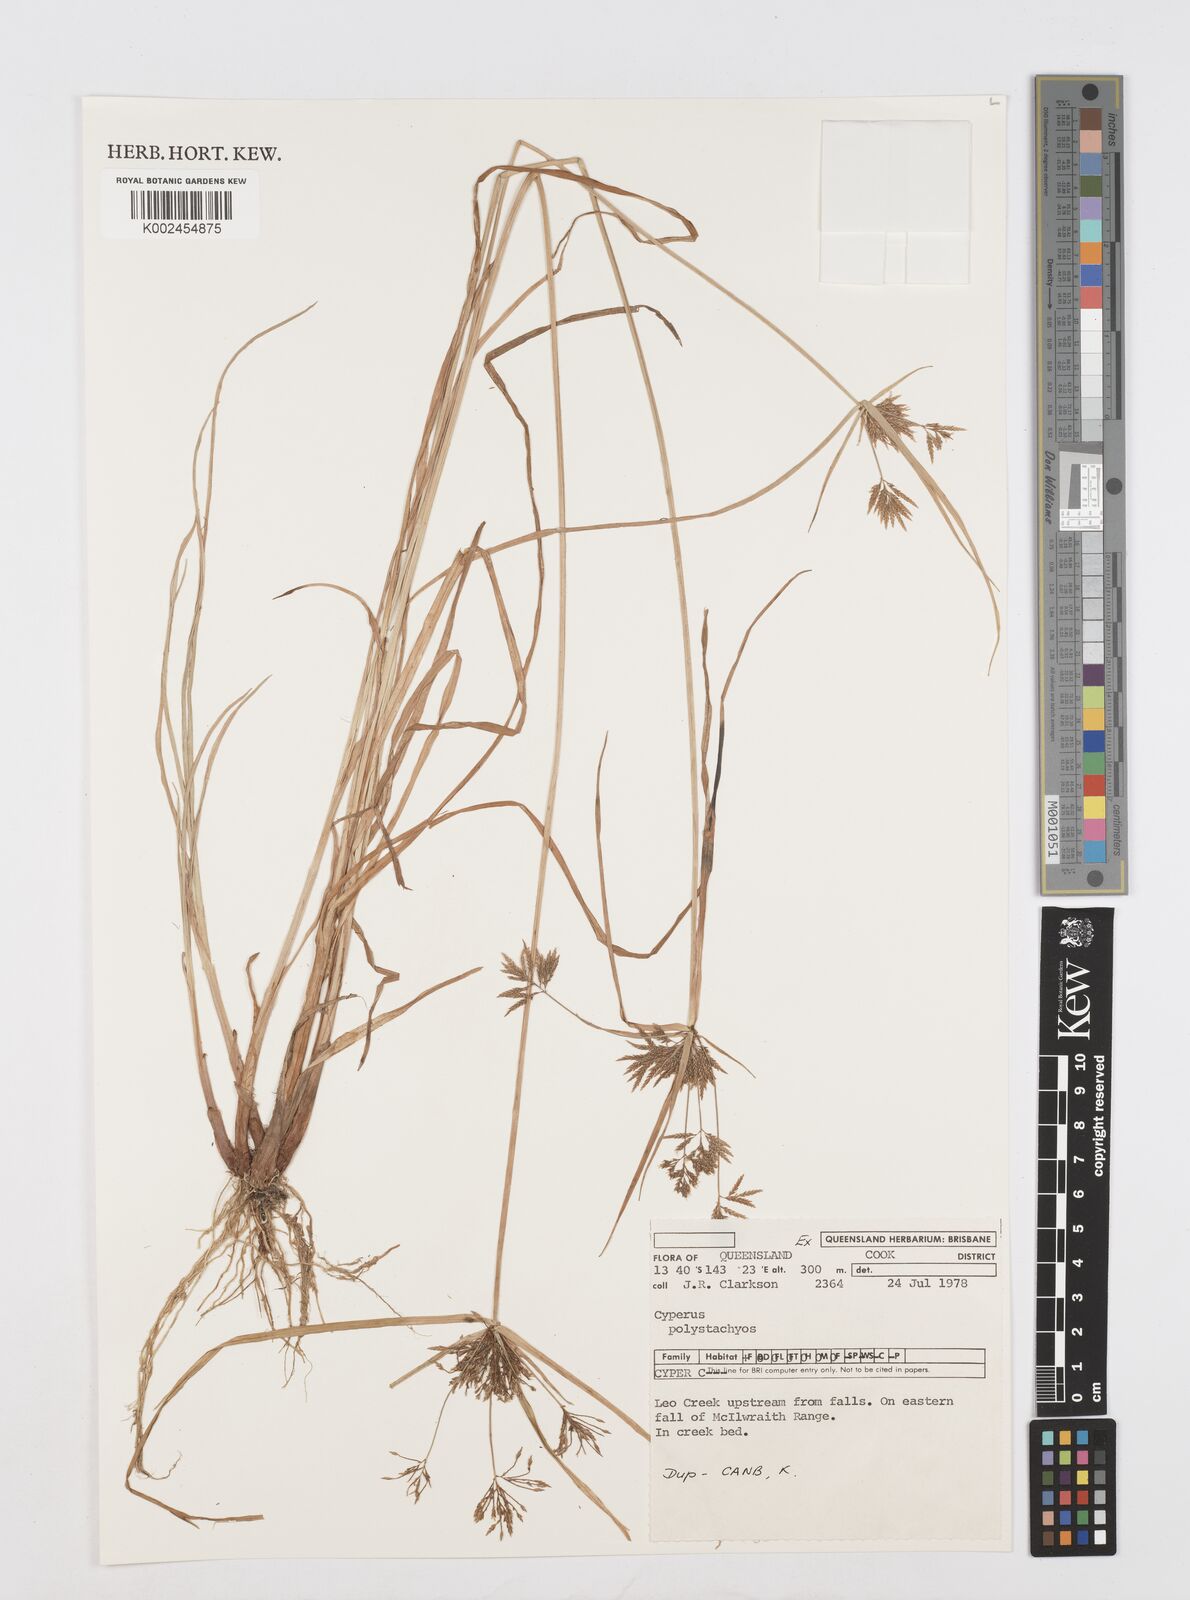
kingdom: Plantae
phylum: Tracheophyta
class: Liliopsida
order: Poales
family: Cyperaceae
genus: Cyperus
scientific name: Cyperus polystachyos
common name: Bunchy flat sedge
